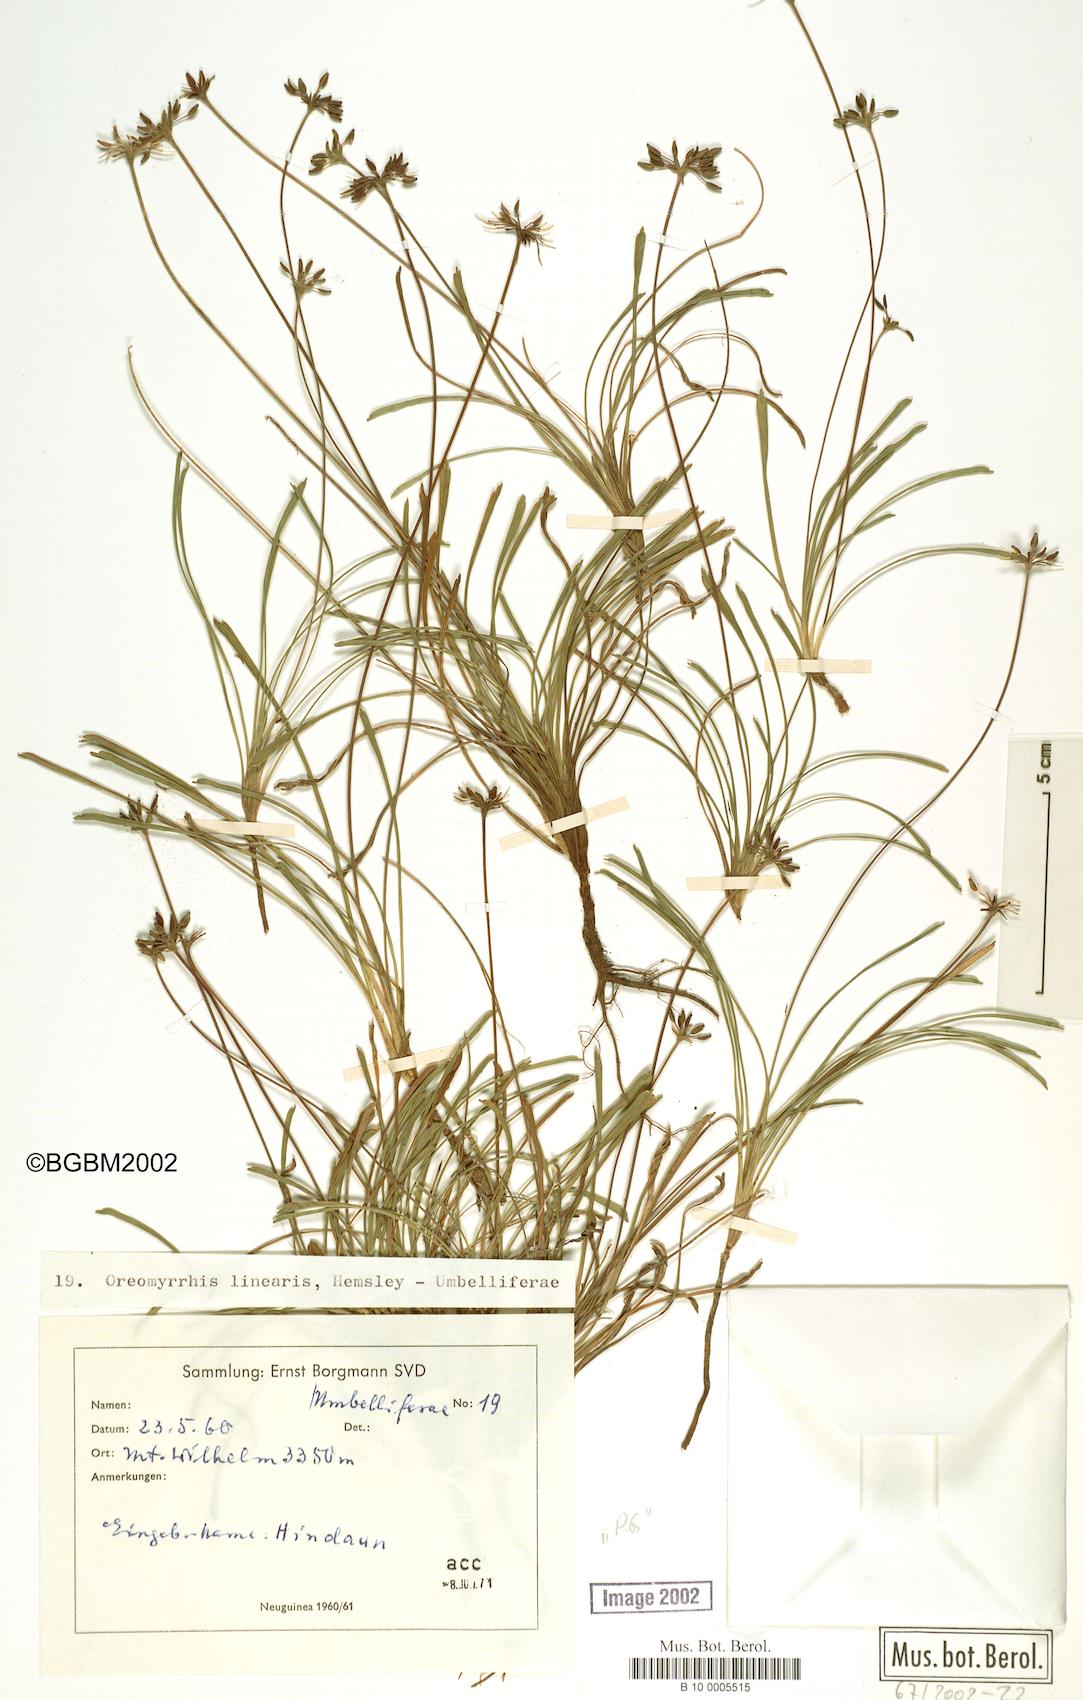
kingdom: Plantae
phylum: Tracheophyta
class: Magnoliopsida
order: Apiales
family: Apiaceae
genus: Chaerophyllum
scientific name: Chaerophyllum lineare
